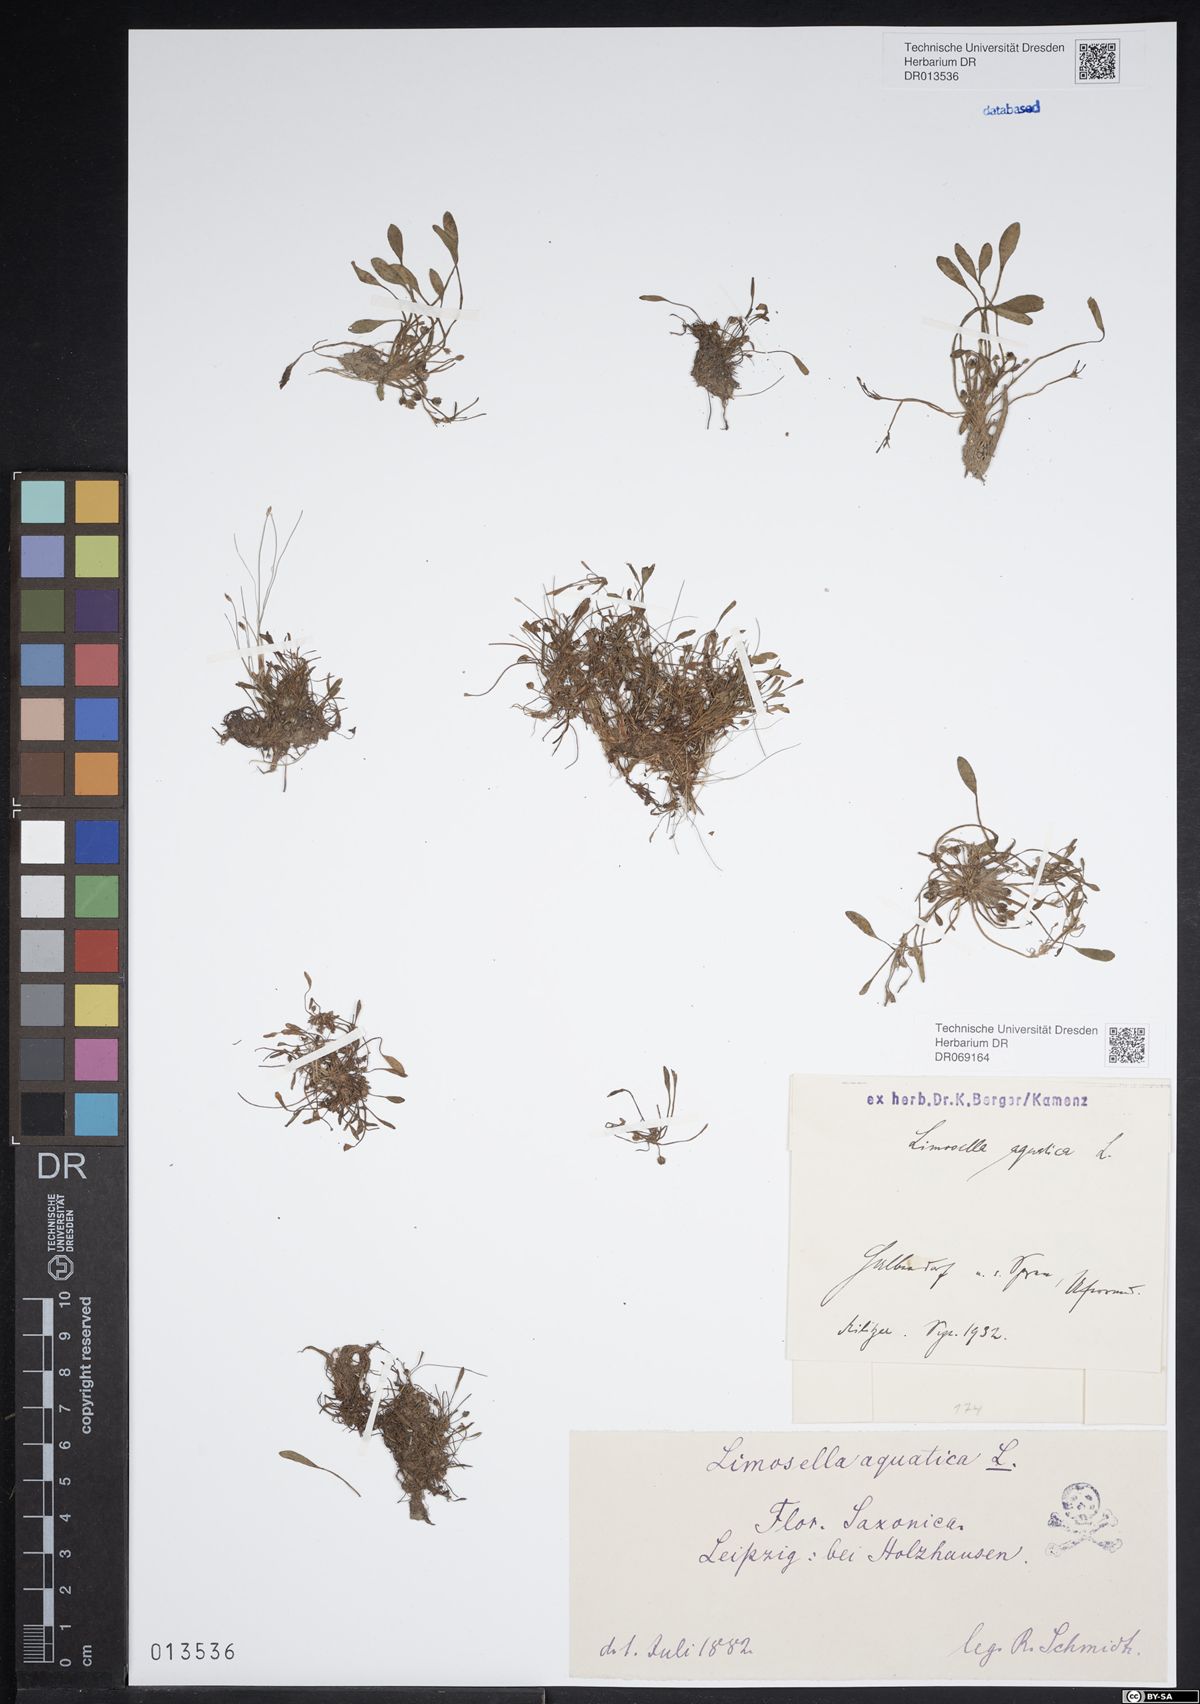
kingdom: Plantae
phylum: Tracheophyta
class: Magnoliopsida
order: Lamiales
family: Scrophulariaceae
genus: Limosella
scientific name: Limosella aquatica
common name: Mudwort
